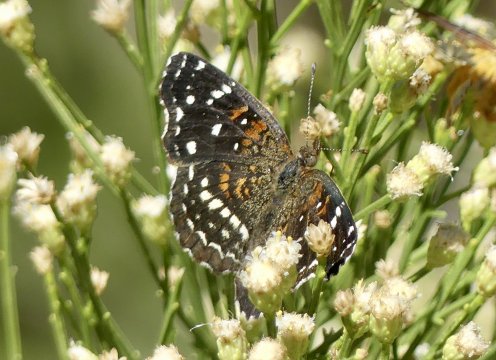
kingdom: Animalia
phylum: Arthropoda
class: Insecta
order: Lepidoptera
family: Nymphalidae
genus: Anthanassa
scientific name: Anthanassa texana
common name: Texan Crescent
